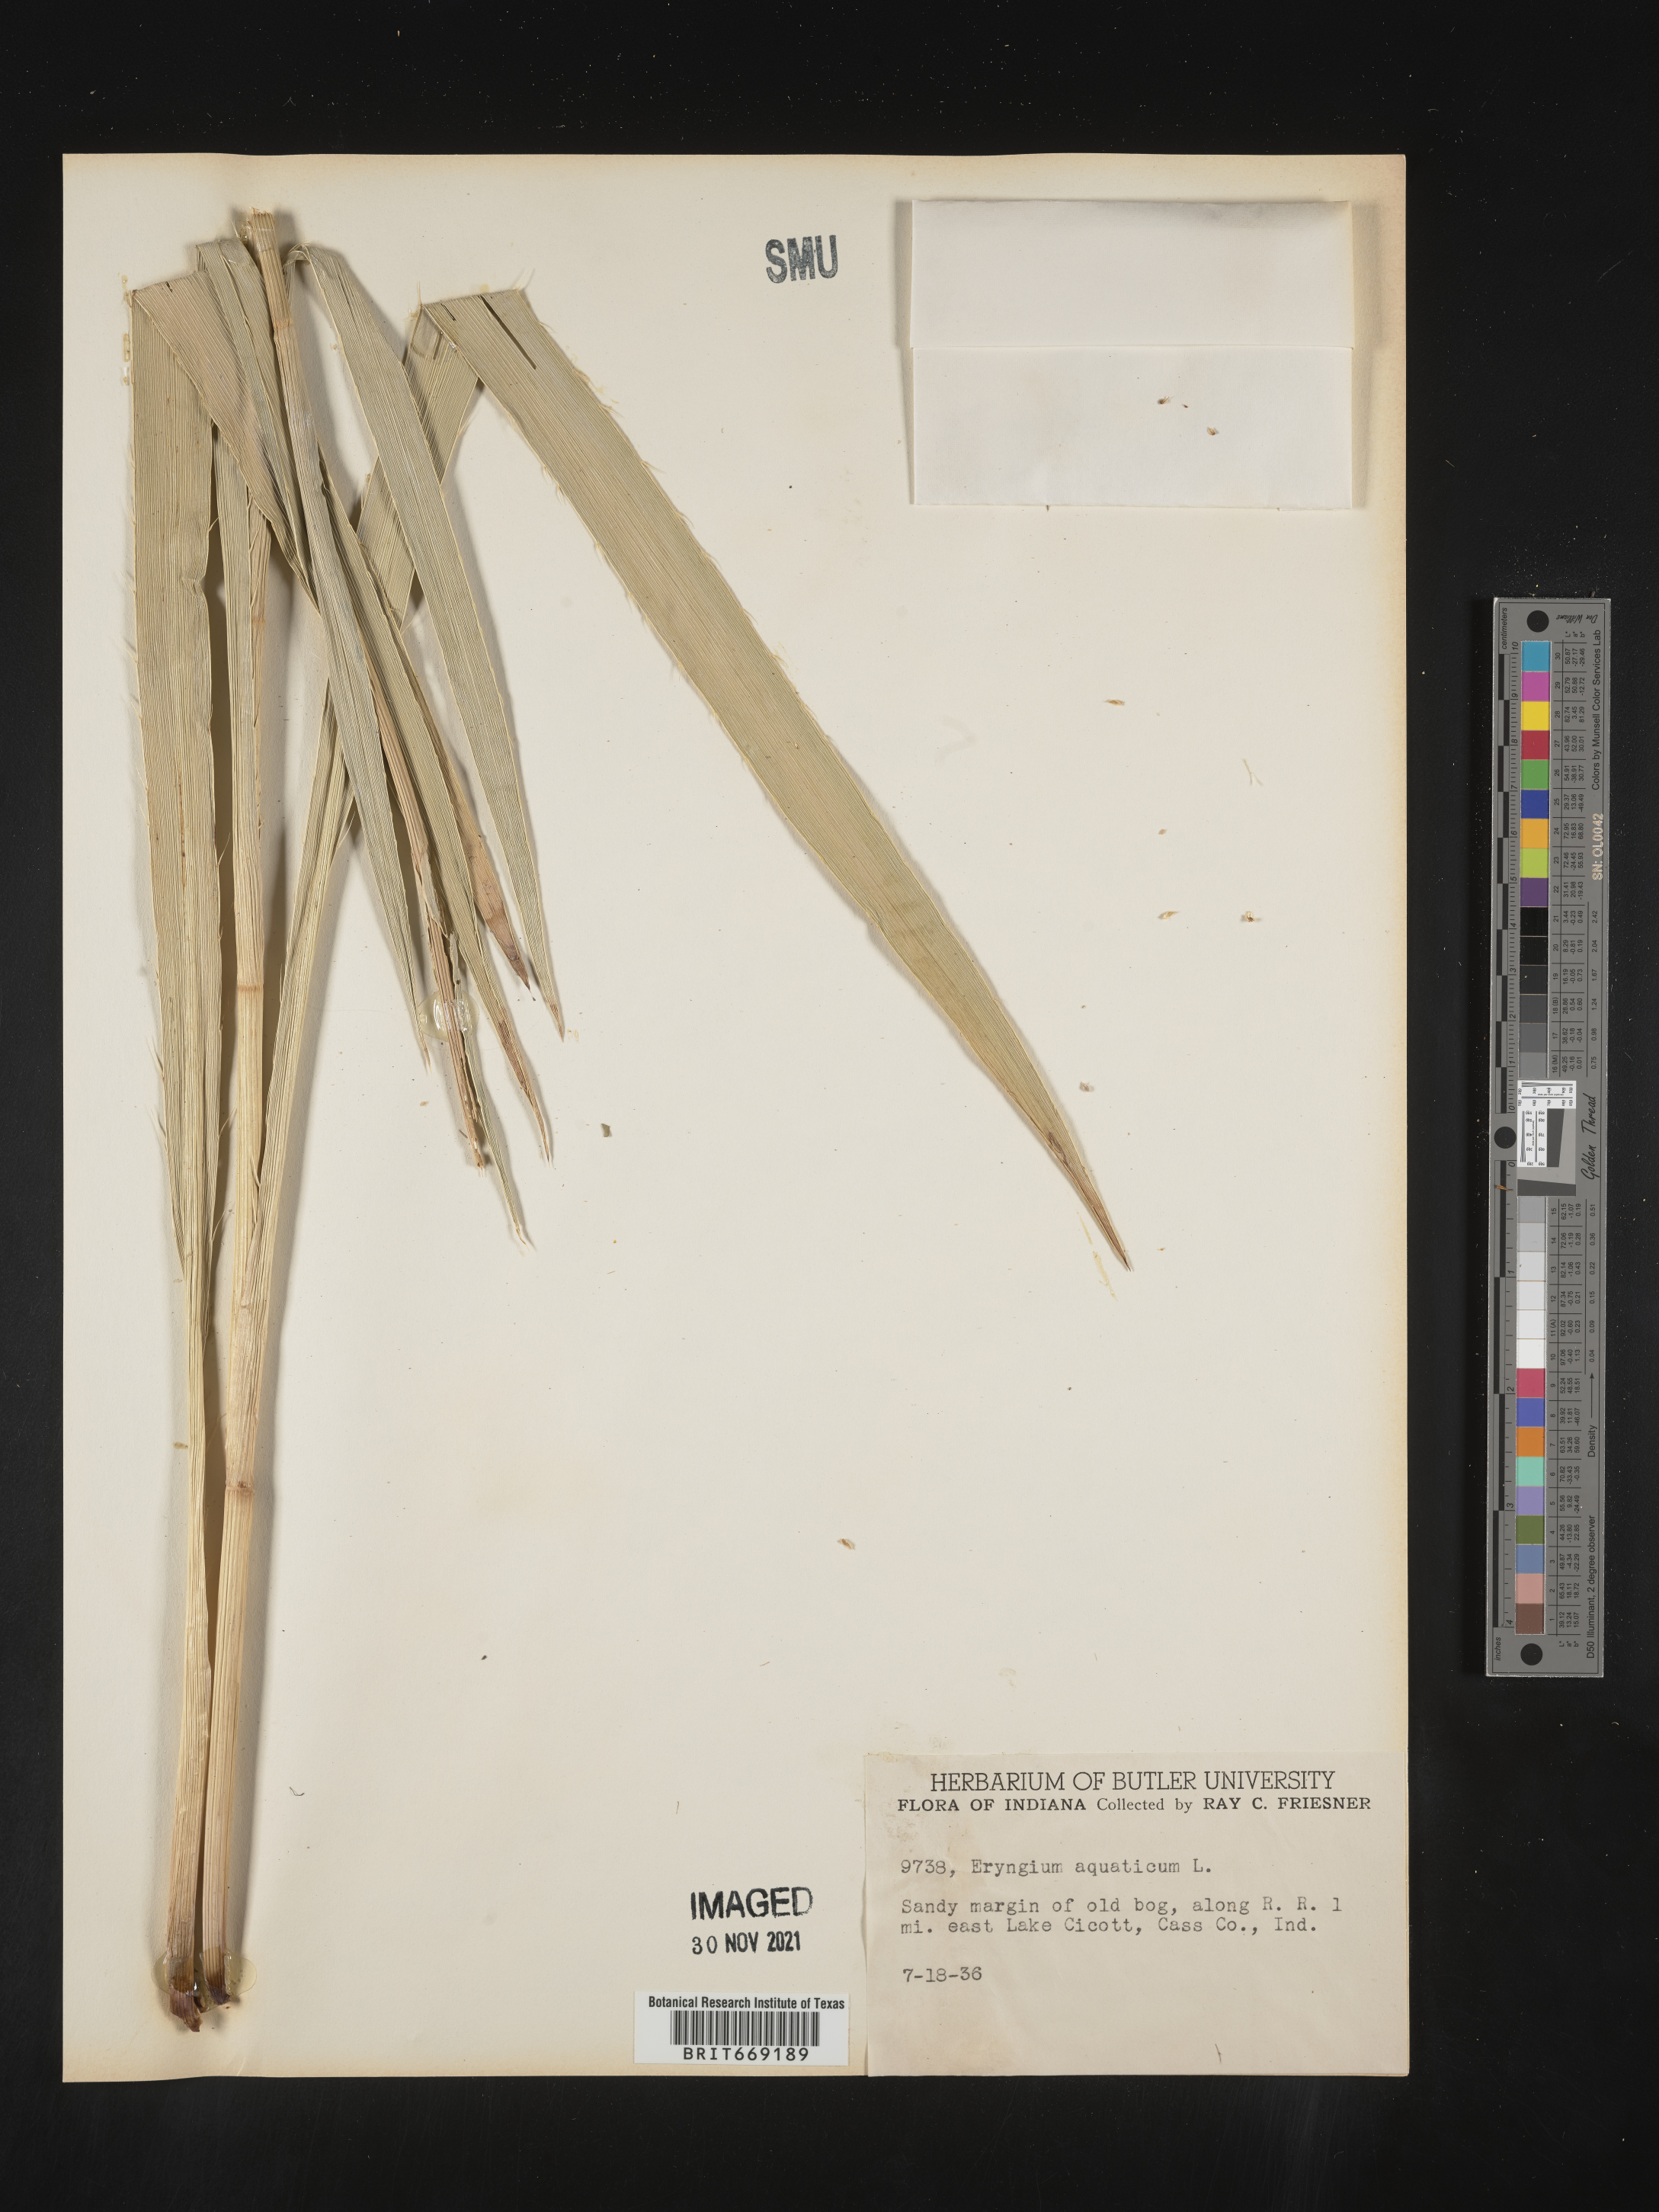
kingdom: Plantae
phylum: Tracheophyta
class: Magnoliopsida
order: Apiales
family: Apiaceae
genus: Eryngium
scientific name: Eryngium aquaticum
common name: Water eryngo
